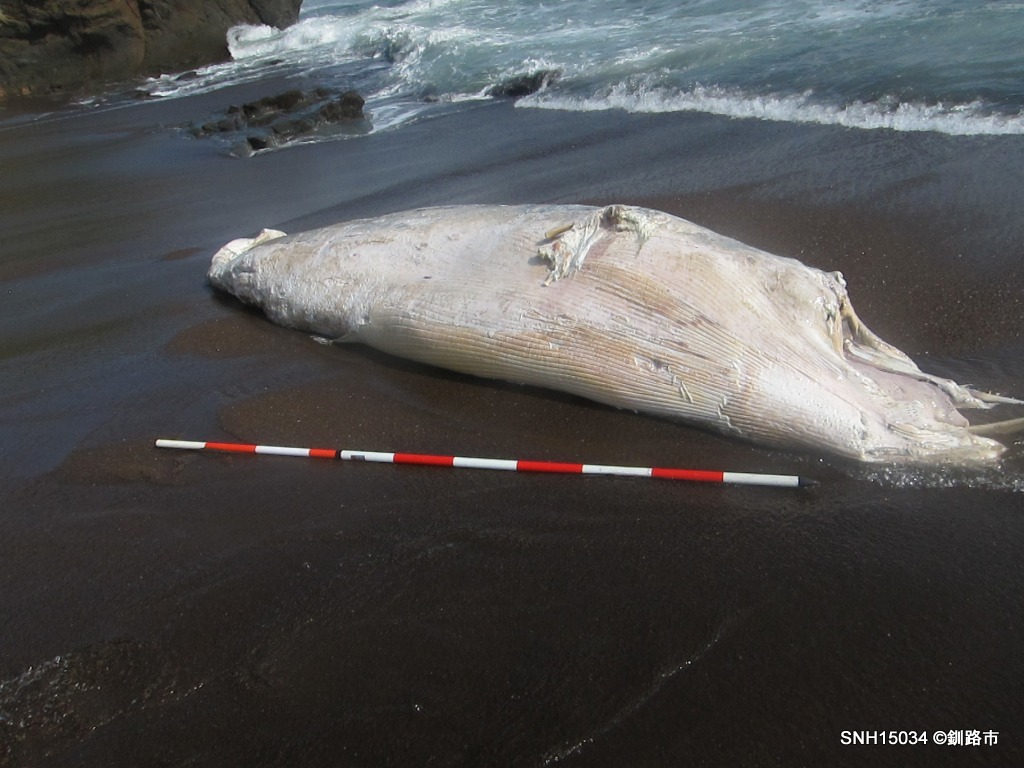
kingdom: Animalia
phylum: Chordata
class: Mammalia
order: Cetacea
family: Balaenopteridae
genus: Balaenoptera
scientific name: Balaenoptera
